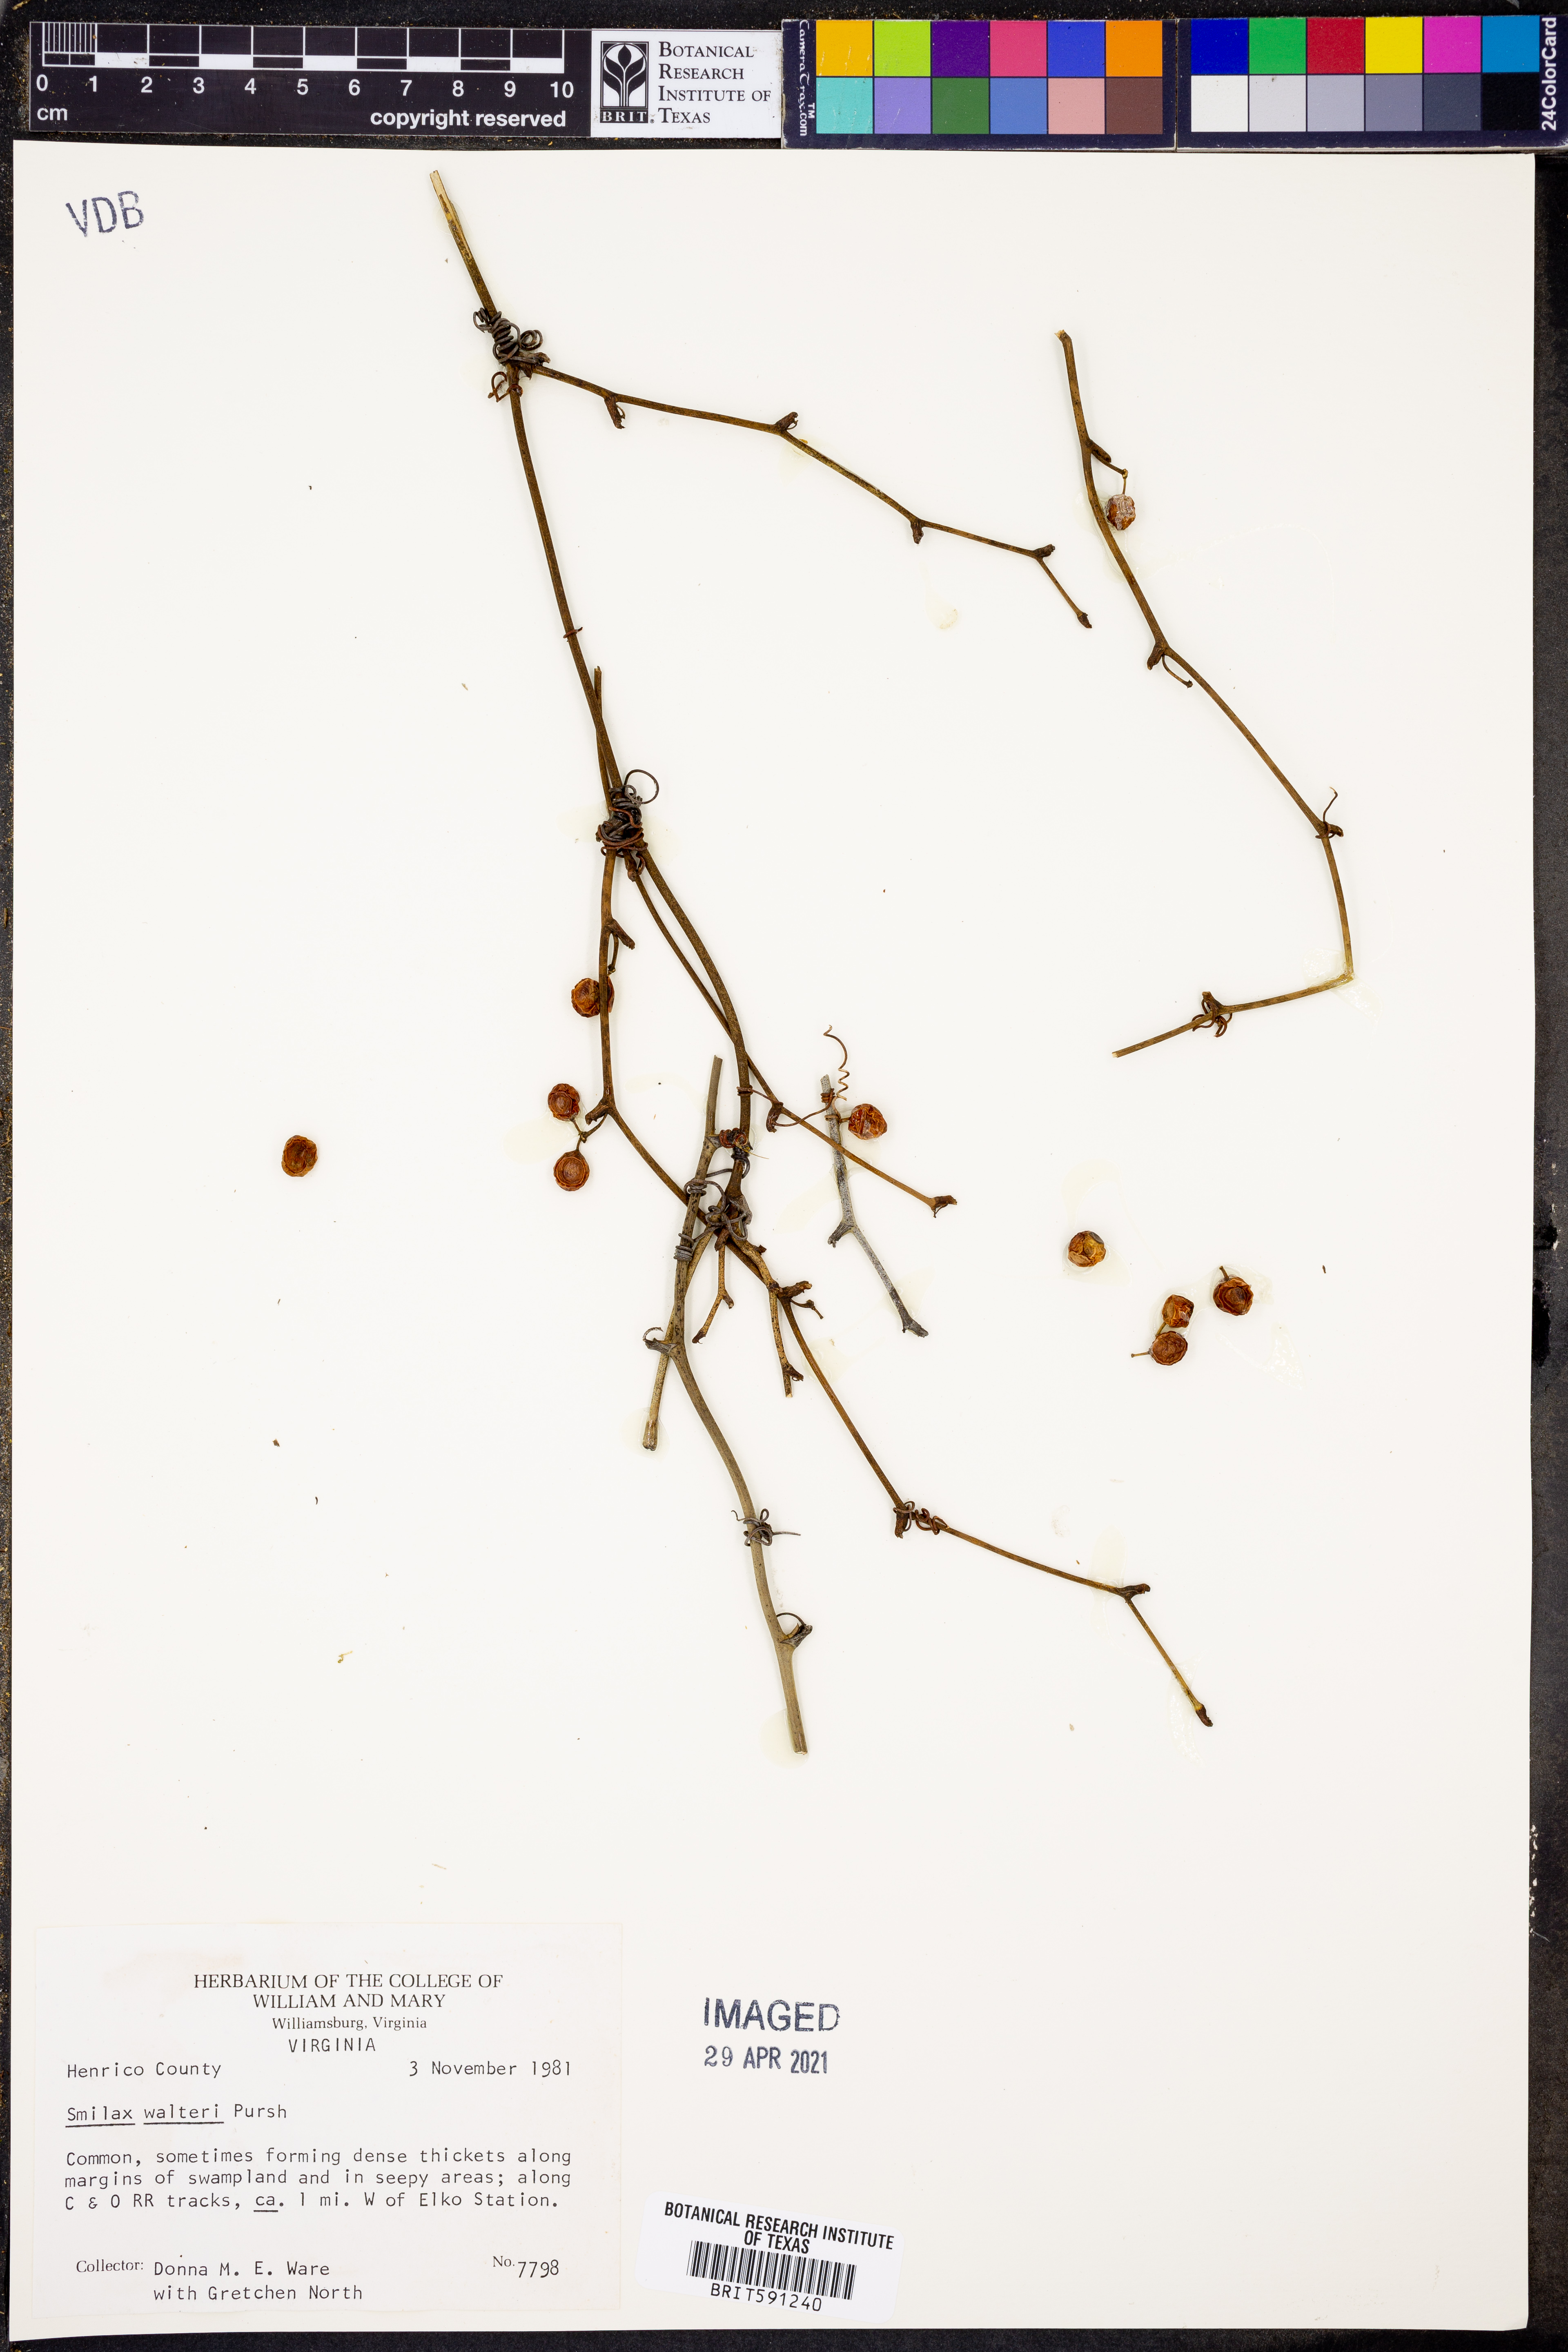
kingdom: Plantae
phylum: Tracheophyta
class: Liliopsida
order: Liliales
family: Smilacaceae
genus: Smilax
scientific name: Smilax walteri
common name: Coral greenbrier
